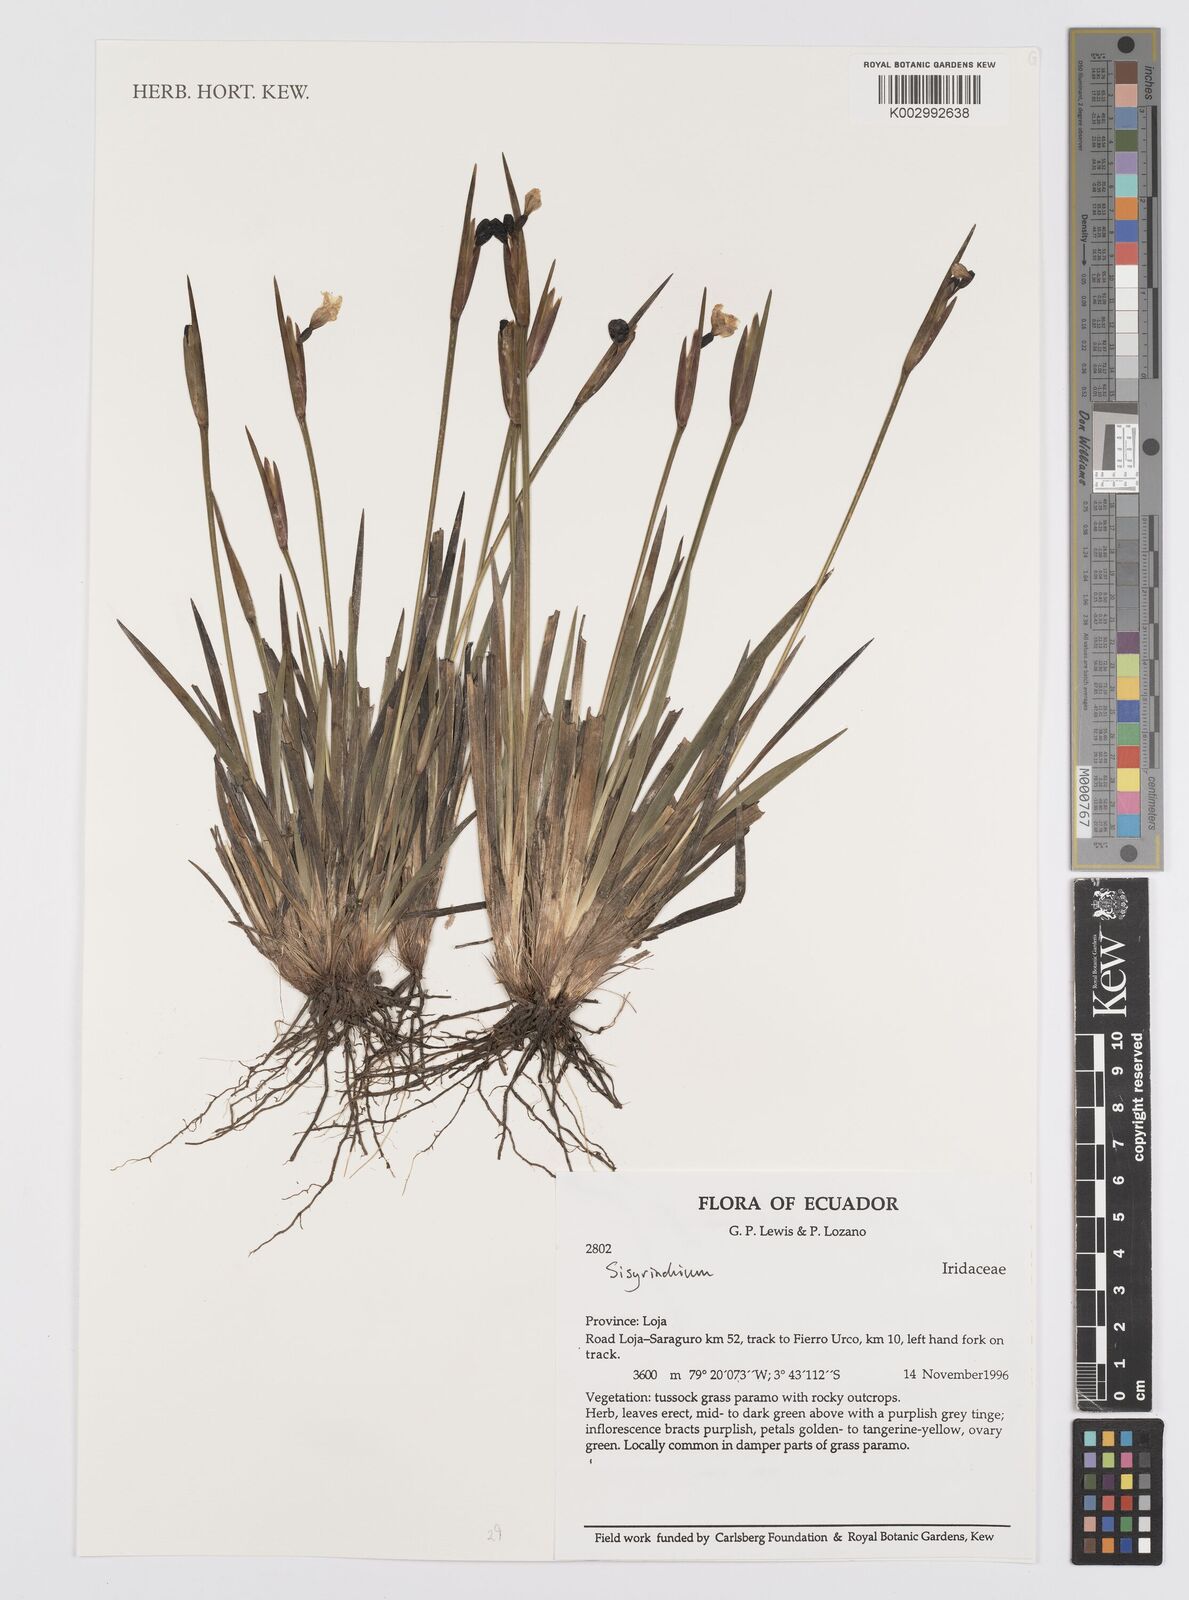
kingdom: Plantae
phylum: Tracheophyta
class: Liliopsida
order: Asparagales
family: Iridaceae
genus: Sisyrinchium
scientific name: Sisyrinchium
